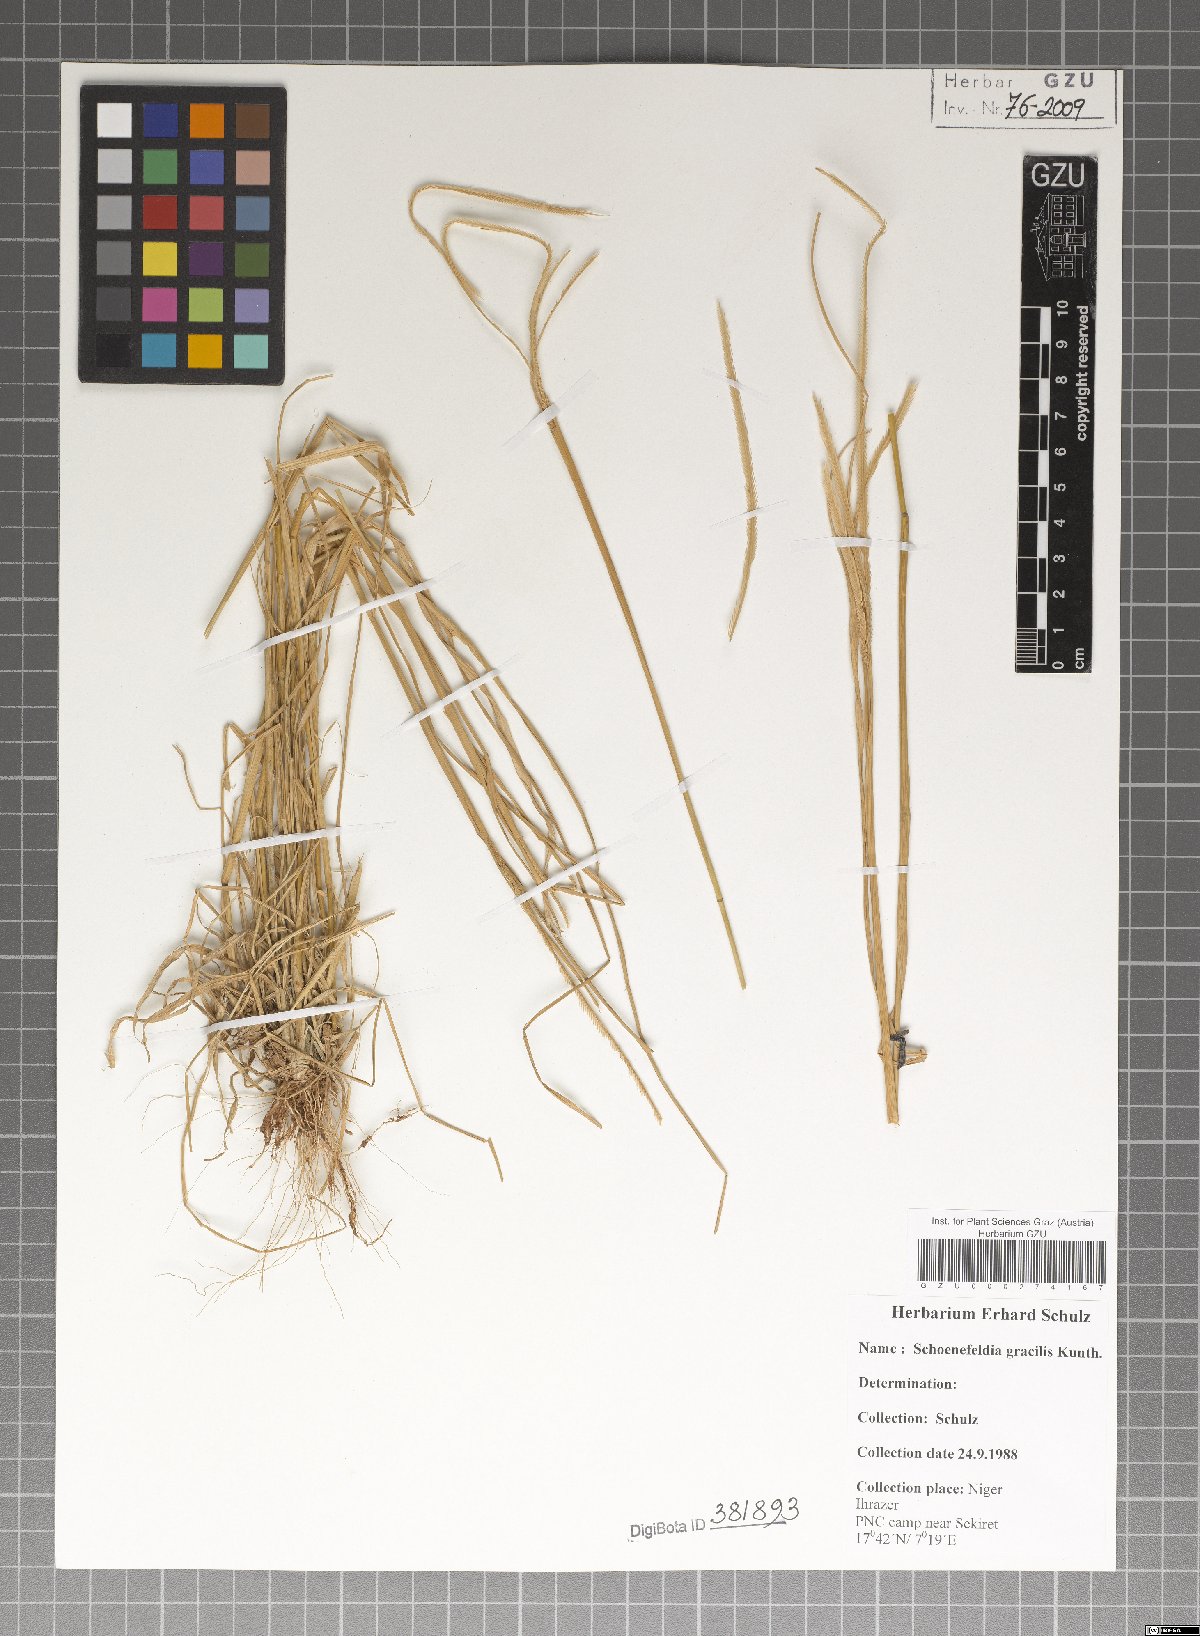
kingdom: Plantae
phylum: Tracheophyta
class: Liliopsida
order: Poales
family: Poaceae
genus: Schoenefeldia
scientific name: Schoenefeldia gracilis
